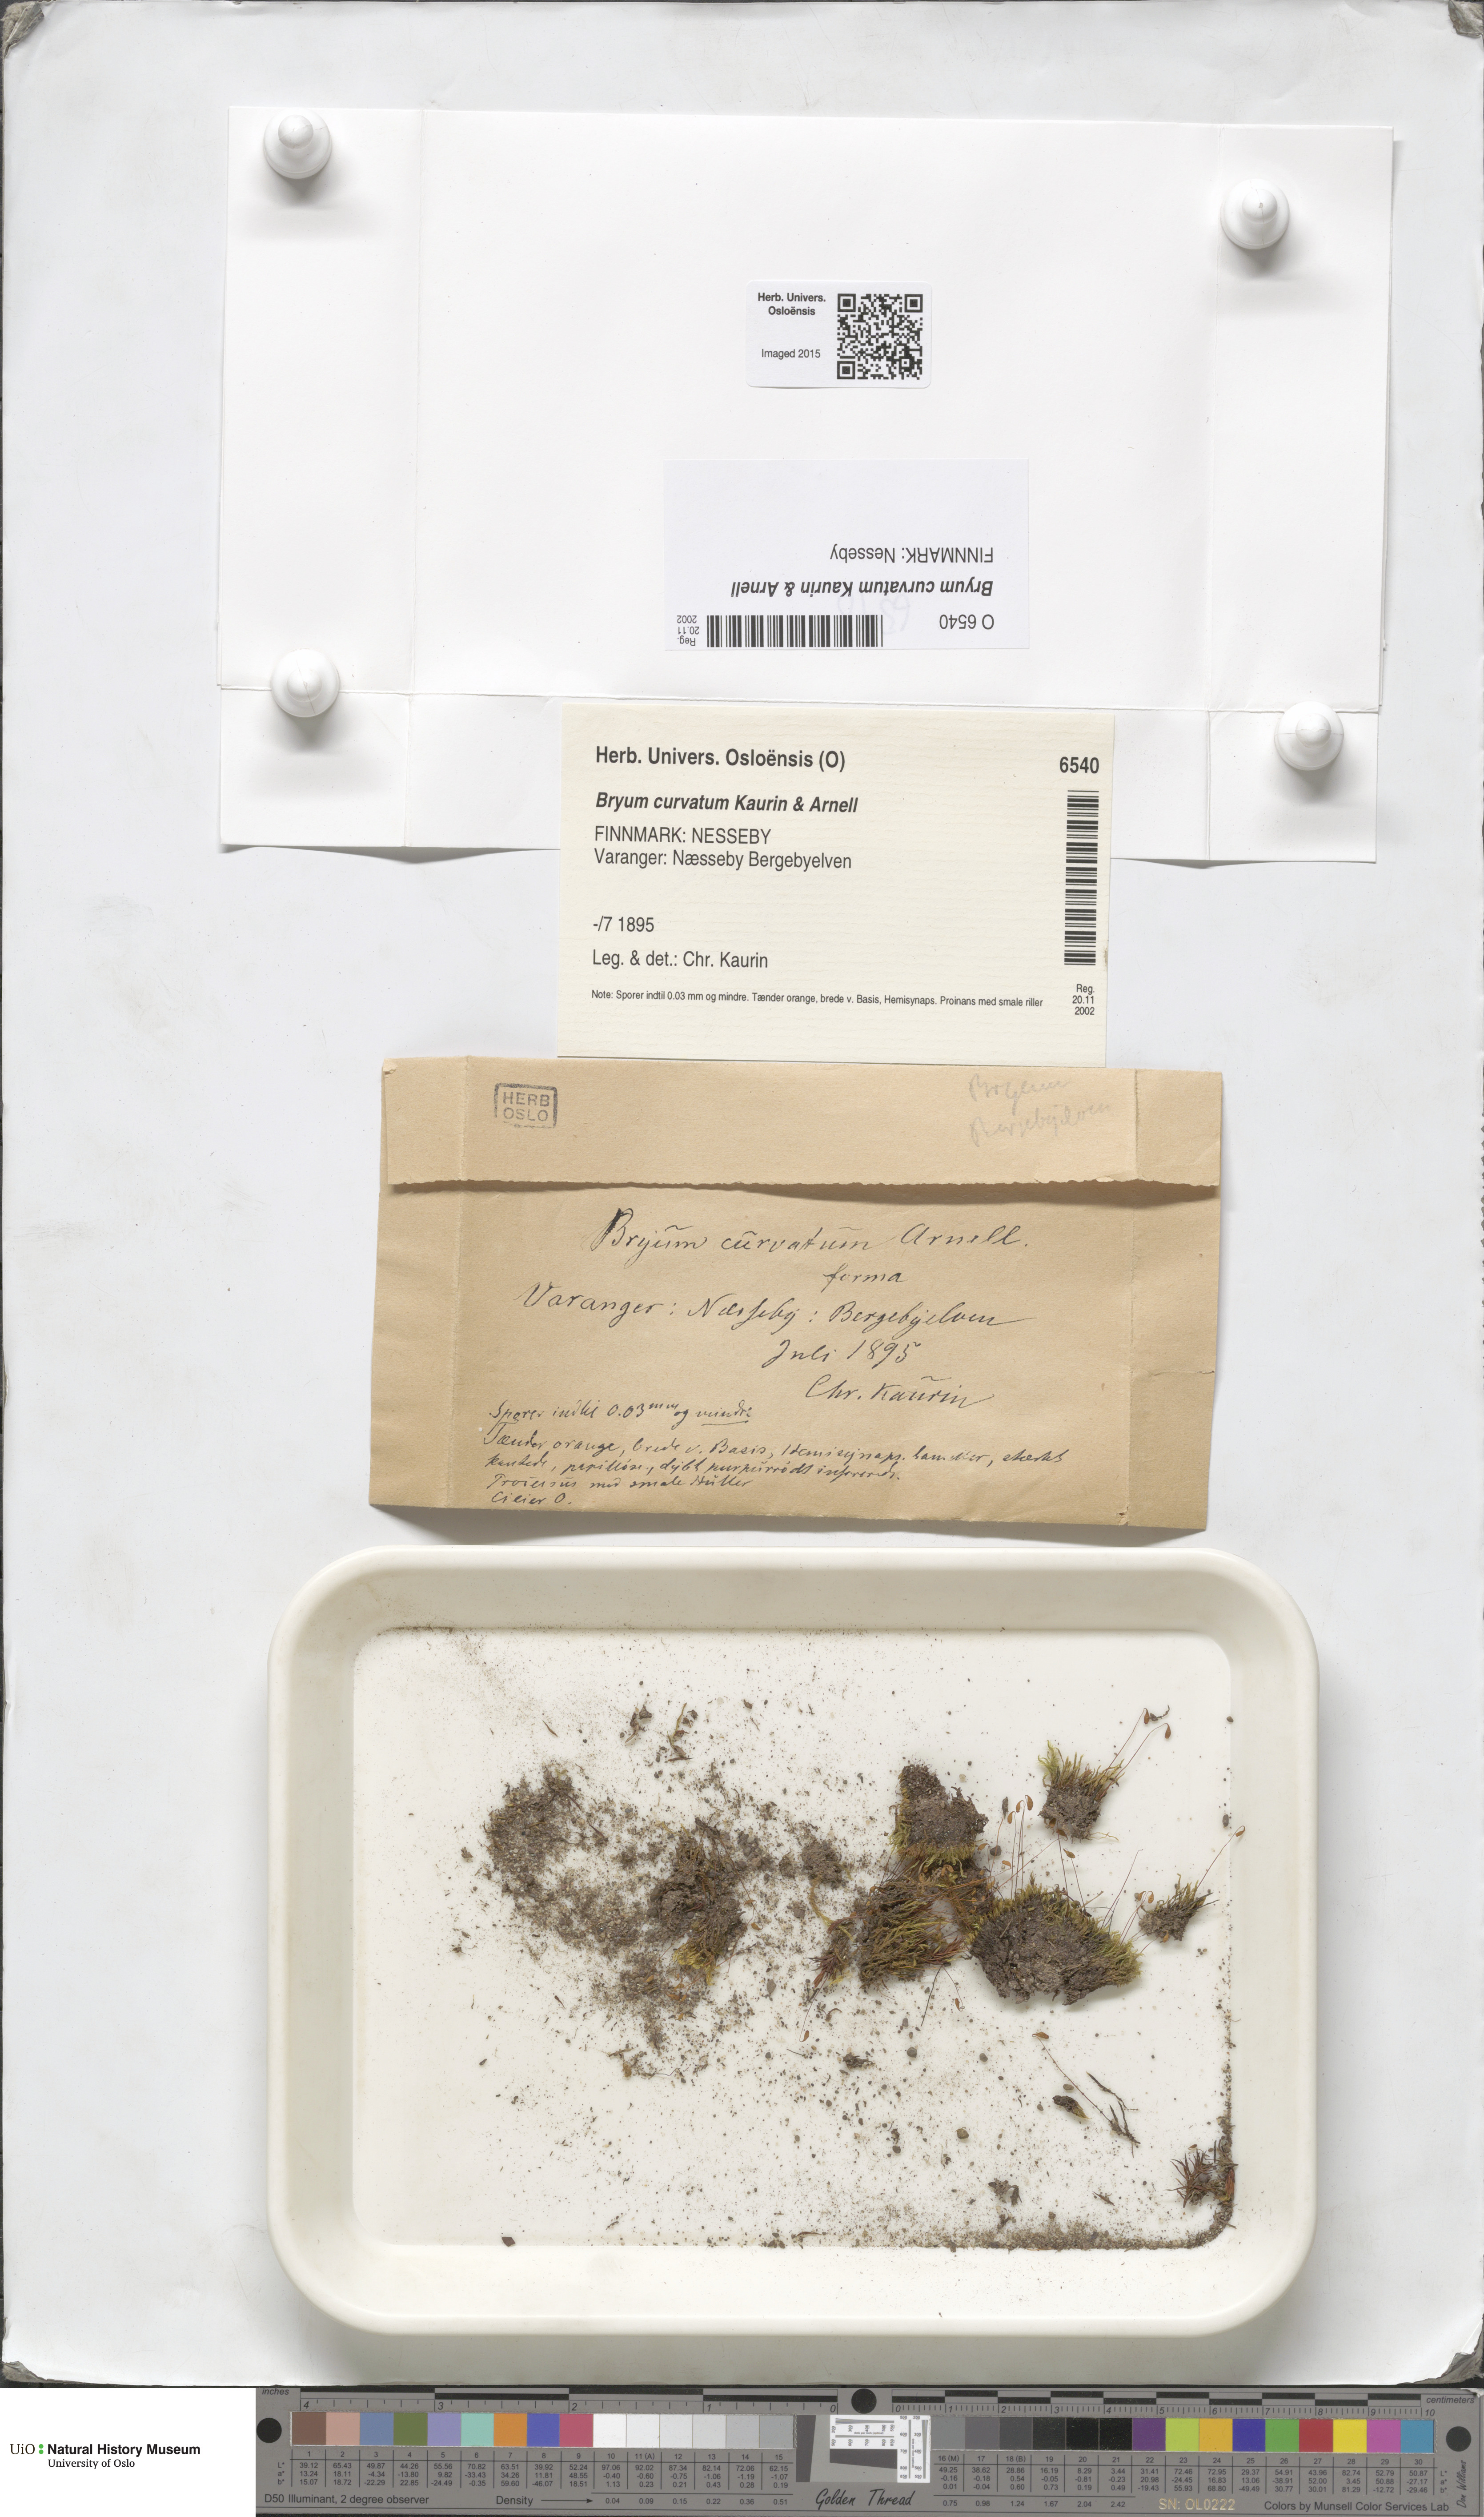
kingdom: Plantae
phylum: Bryophyta
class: Bryopsida
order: Bryales
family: Bryaceae
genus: Ptychostomum
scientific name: Ptychostomum inclinatum
